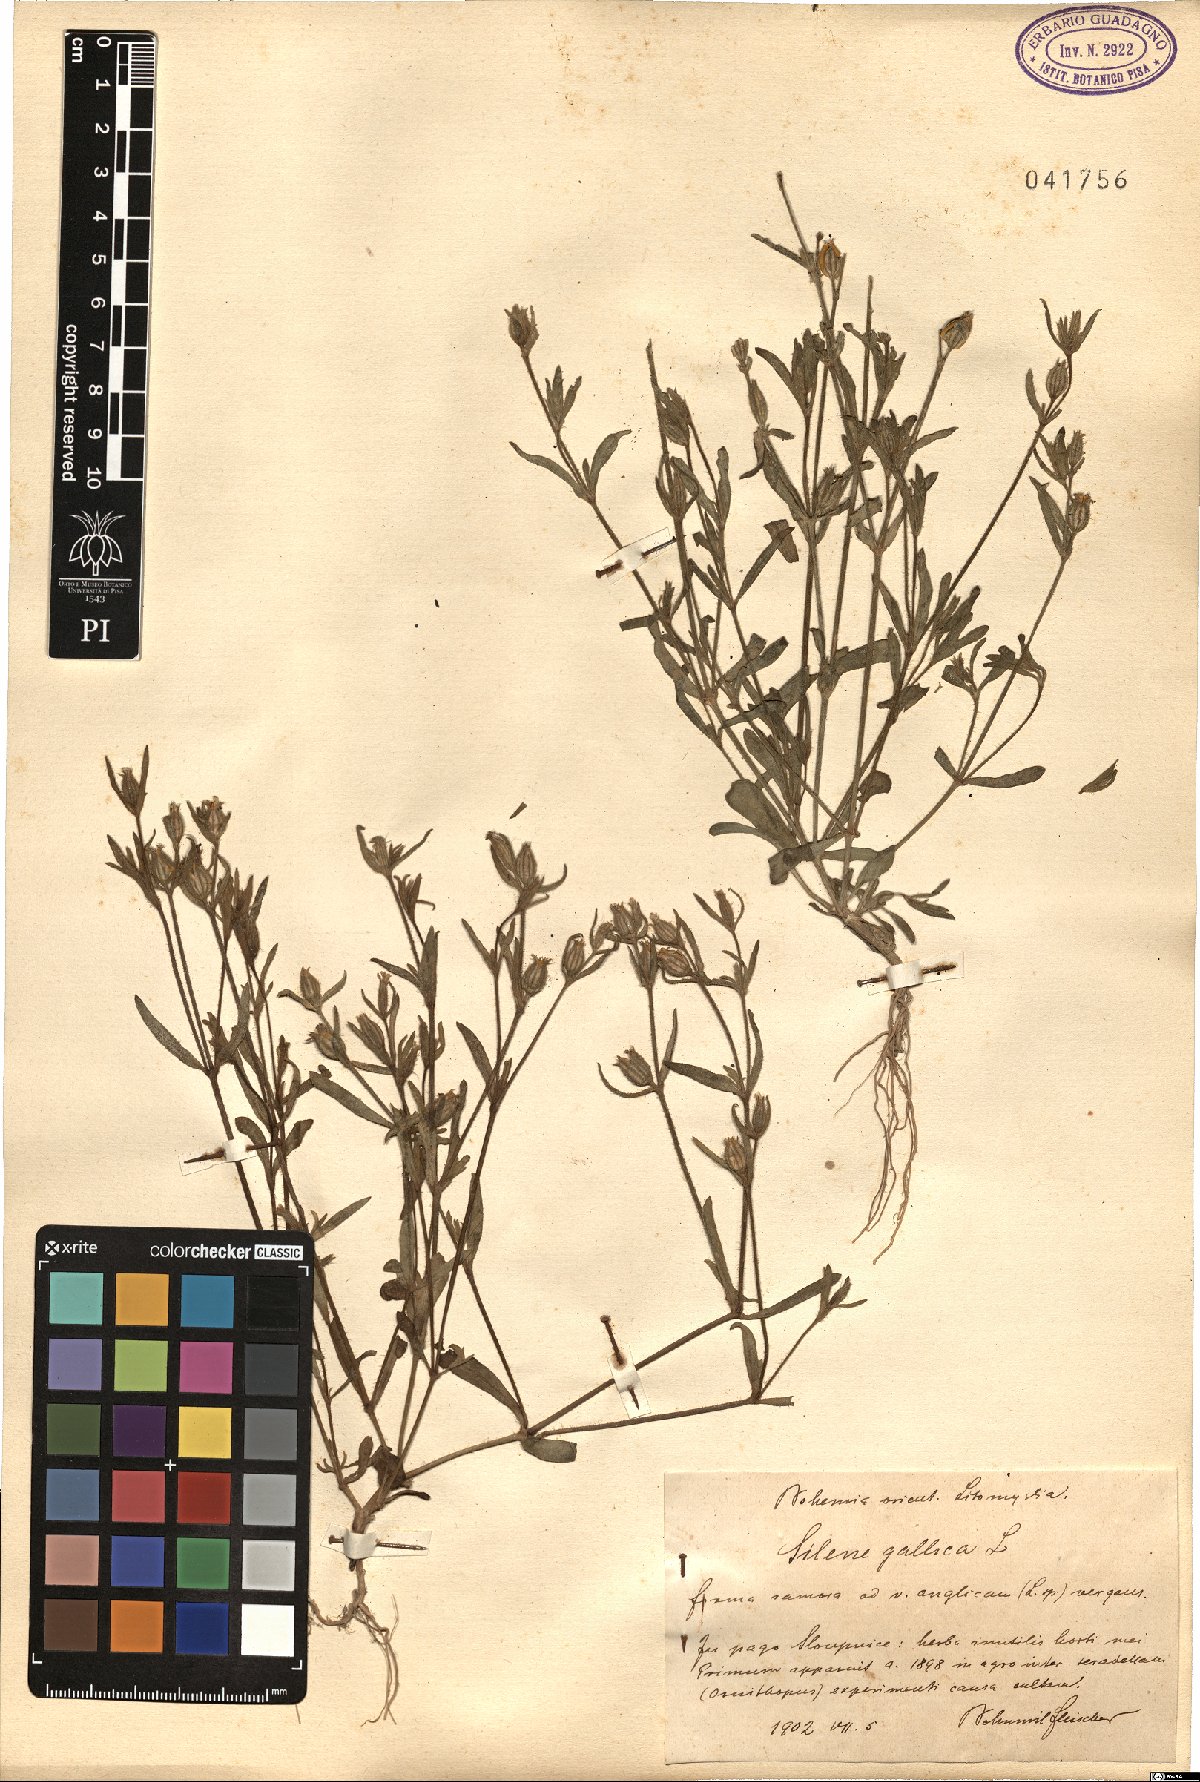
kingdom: Plantae
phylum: Tracheophyta
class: Magnoliopsida
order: Caryophyllales
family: Caryophyllaceae
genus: Silene
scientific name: Silene gallica
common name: Small-flowered catchfly
